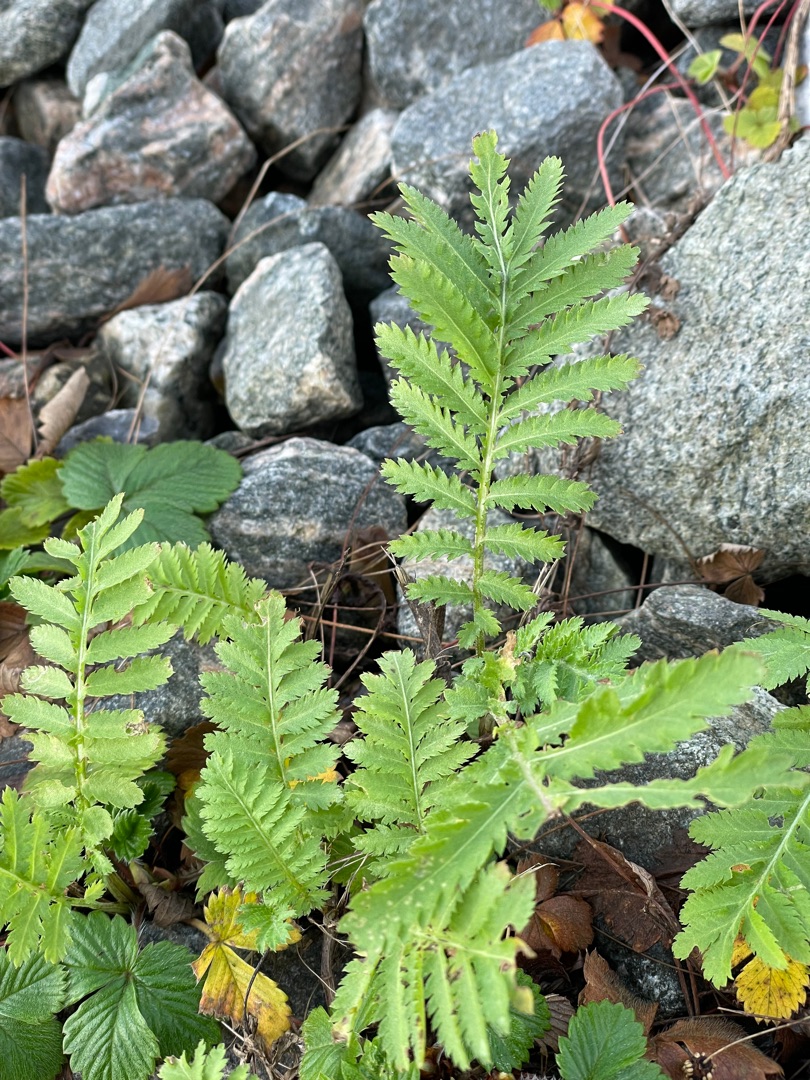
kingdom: Plantae
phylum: Tracheophyta
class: Magnoliopsida
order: Asterales
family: Asteraceae
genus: Tanacetum
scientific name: Tanacetum vulgare
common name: Rejnfan
